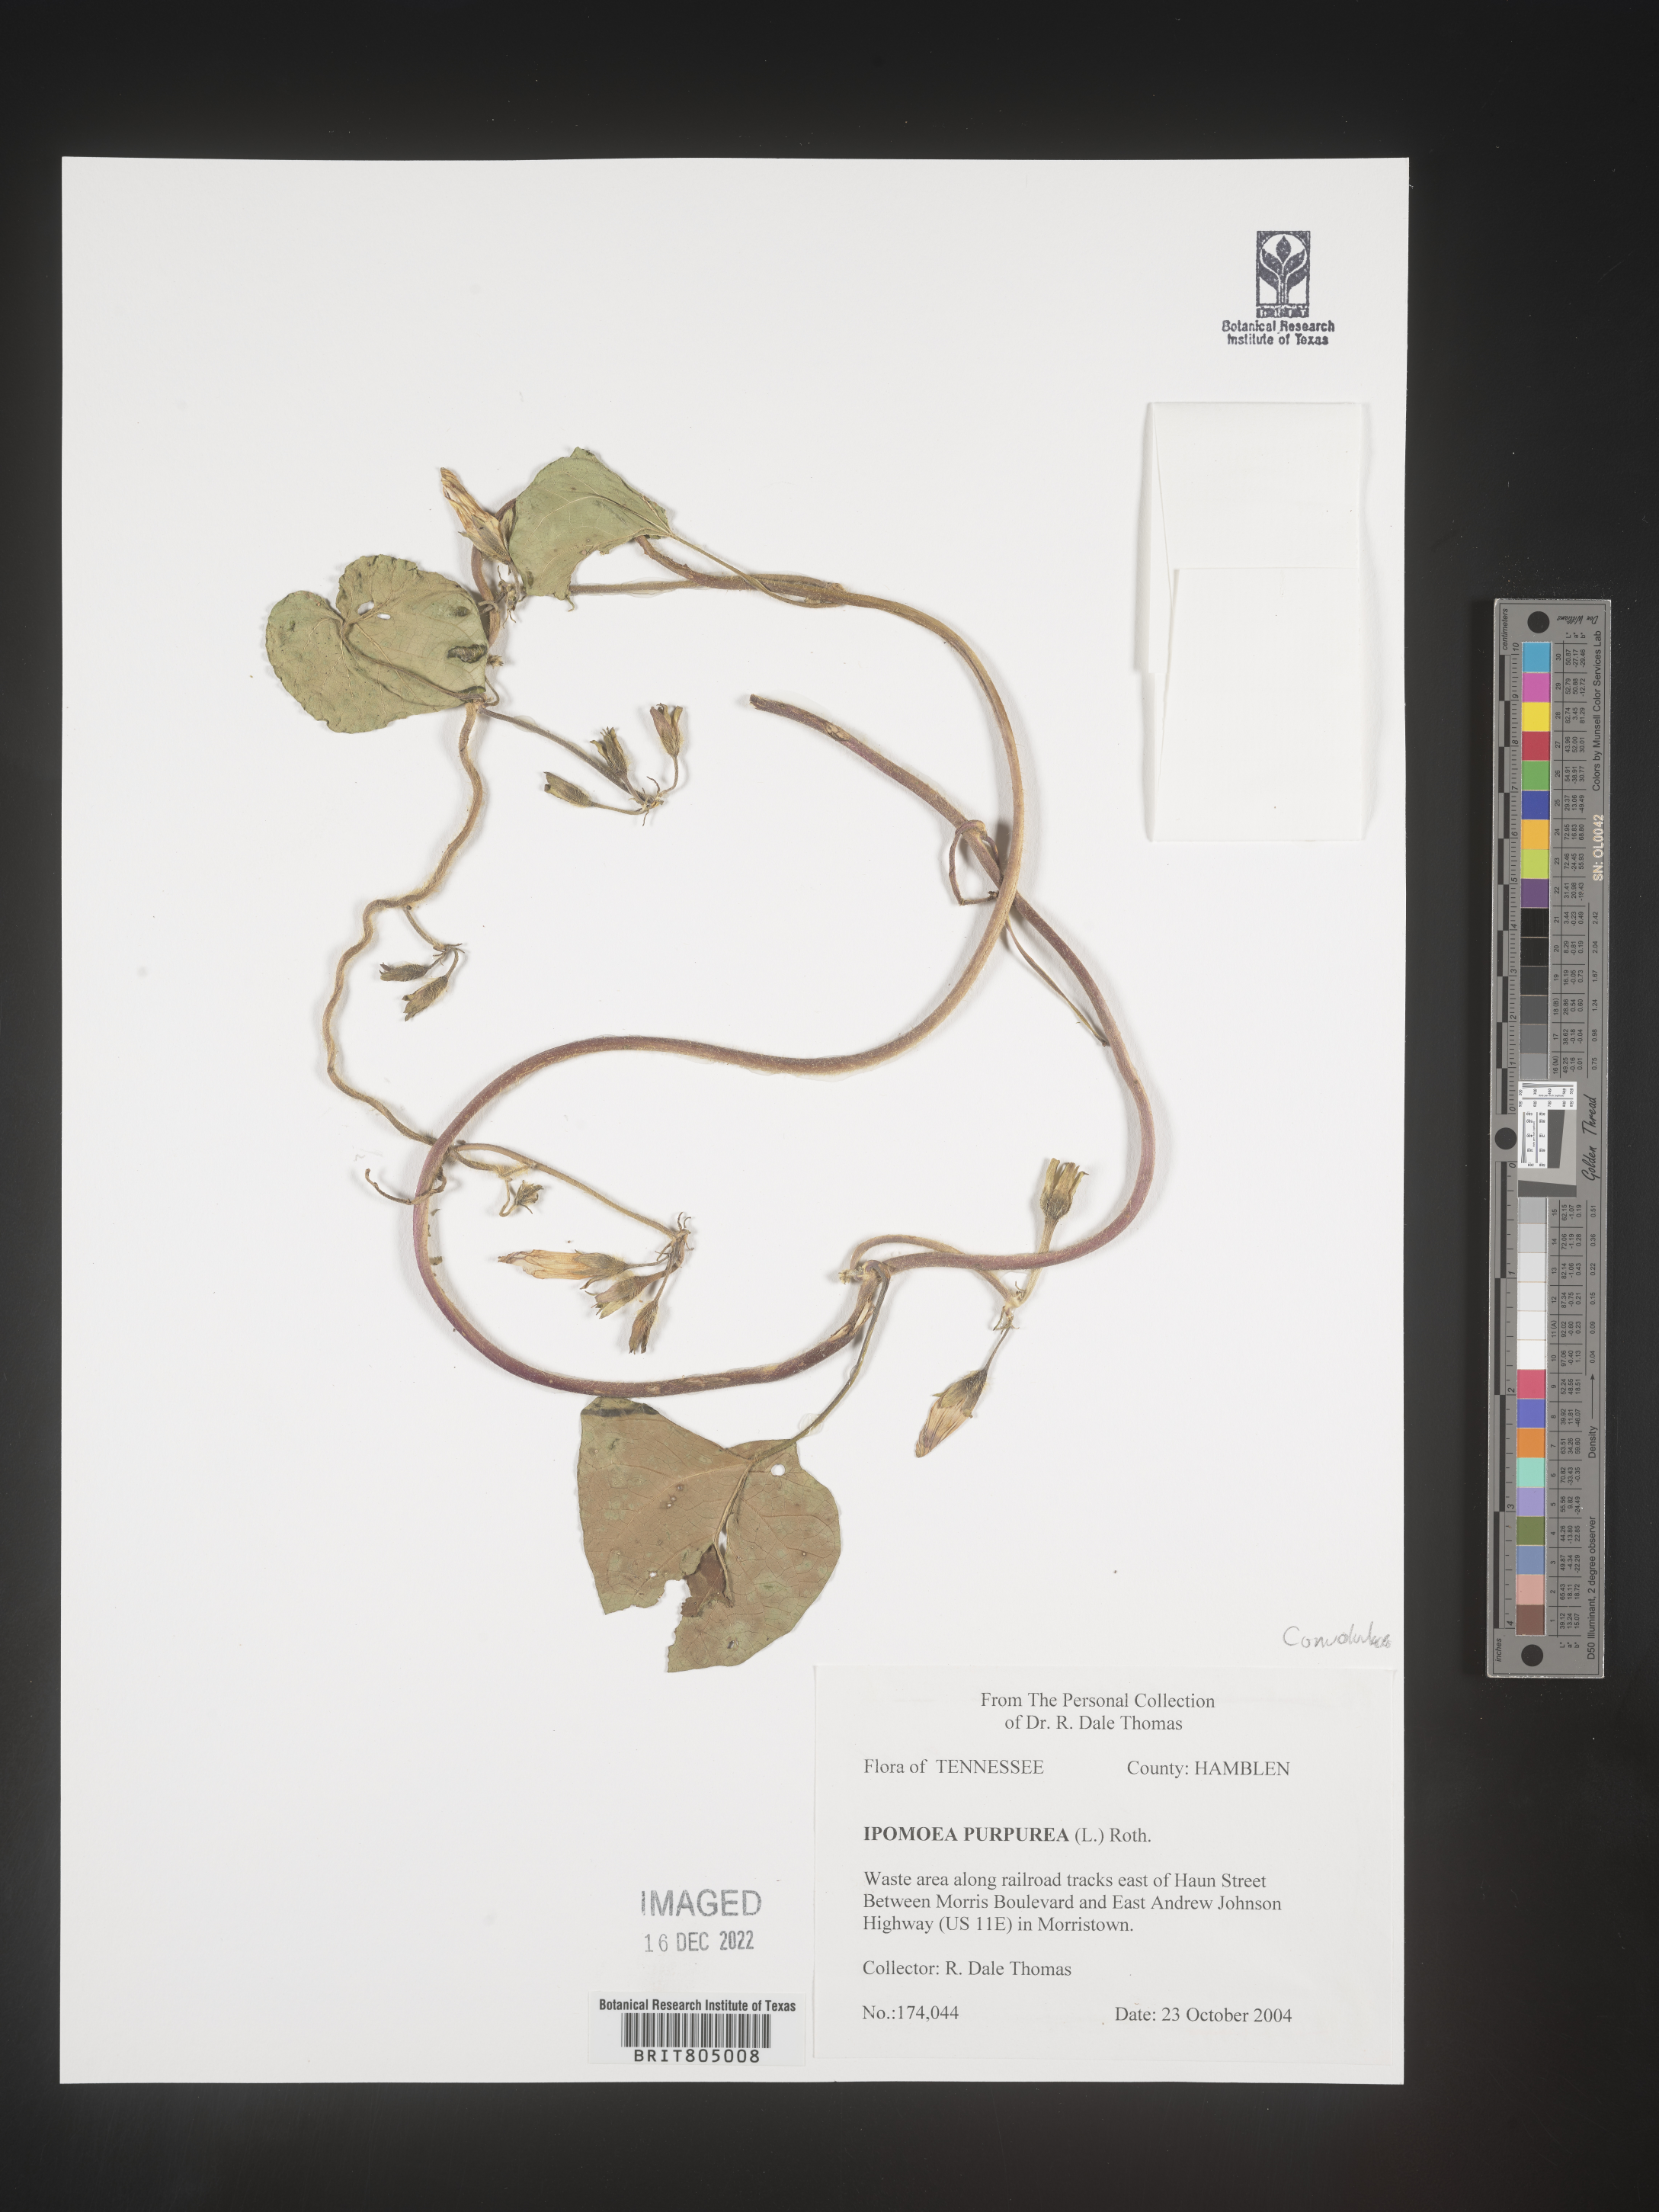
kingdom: Plantae
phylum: Tracheophyta
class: Magnoliopsida
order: Solanales
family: Convolvulaceae
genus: Ipomoea
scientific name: Ipomoea purpurea
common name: Common morning-glory
